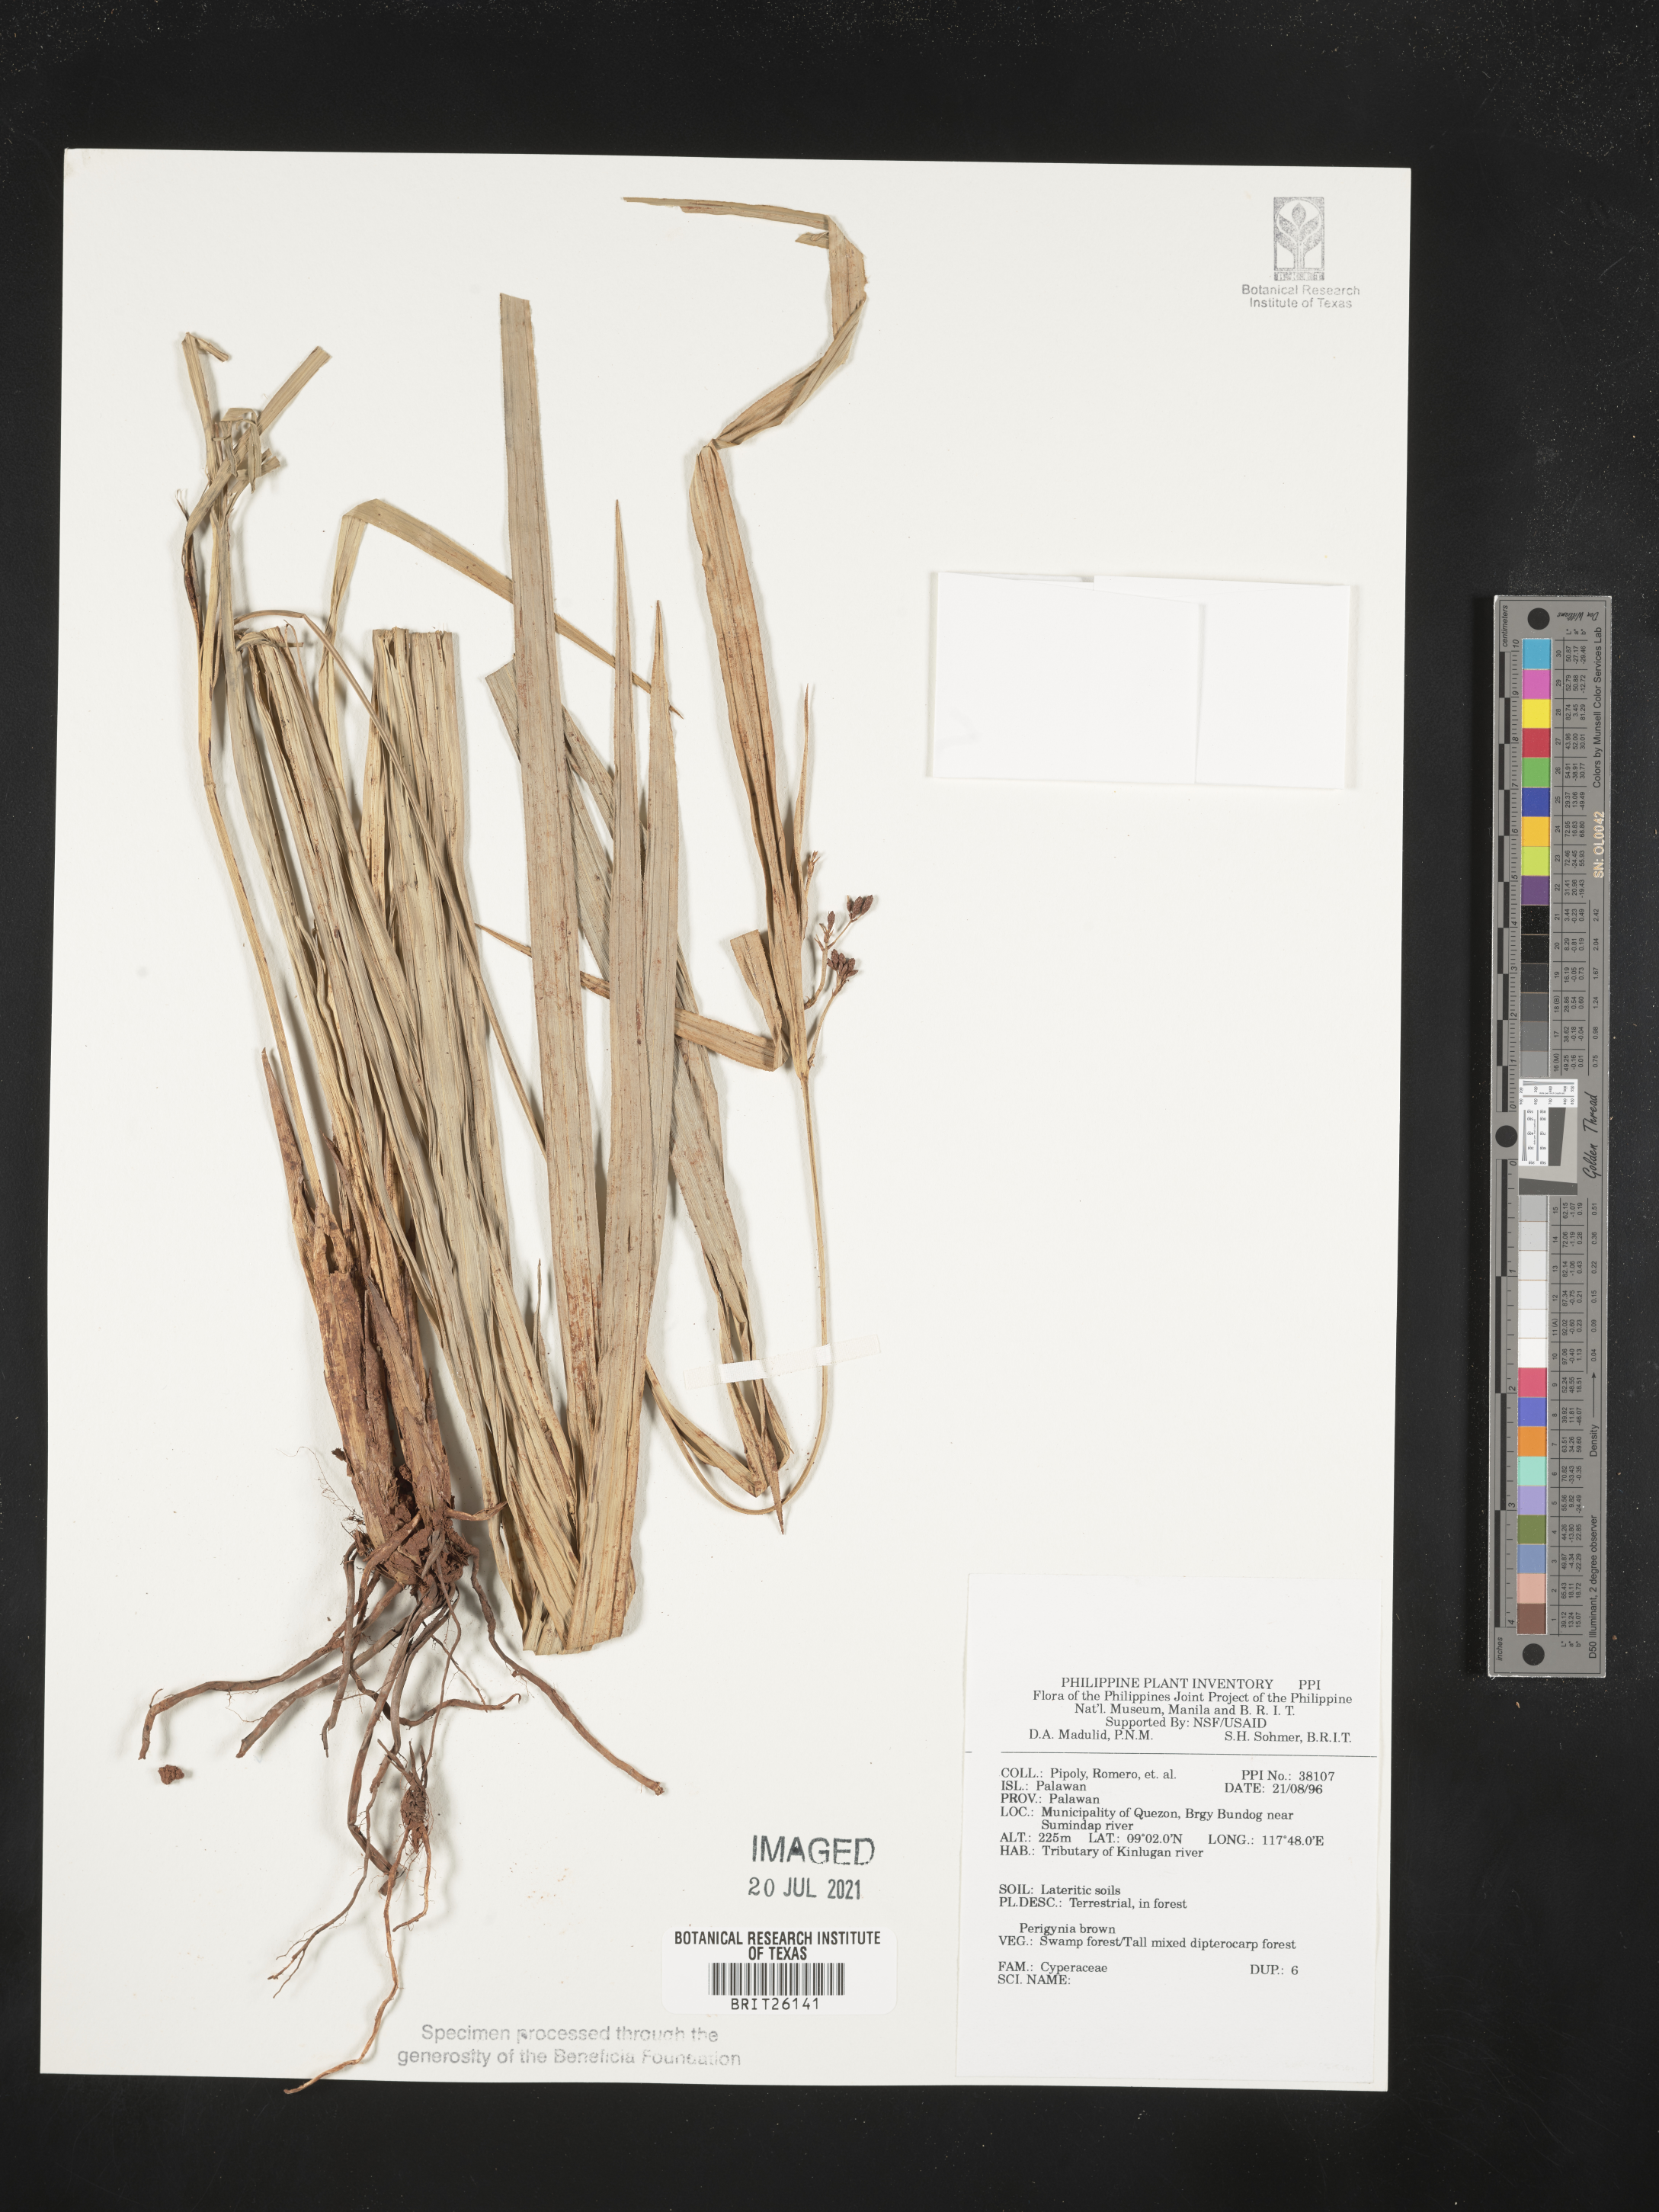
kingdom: Plantae
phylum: Tracheophyta
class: Liliopsida
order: Poales
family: Cyperaceae
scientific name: Cyperaceae
